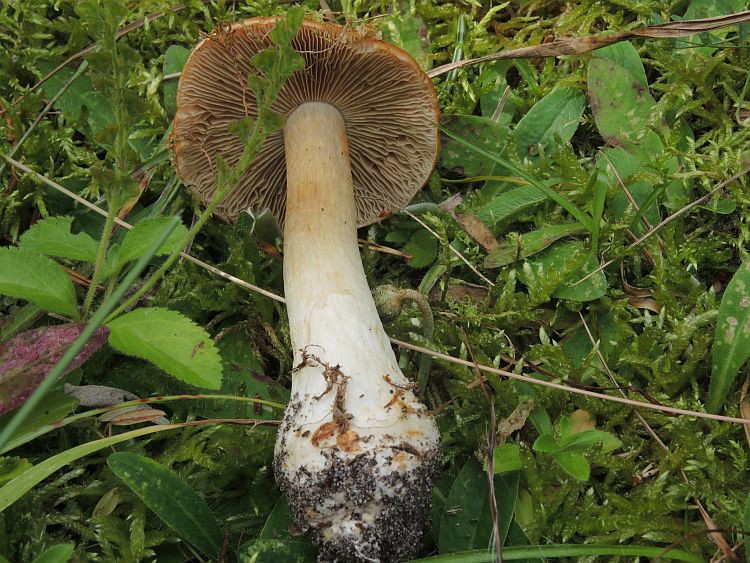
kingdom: Fungi
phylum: Basidiomycota
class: Agaricomycetes
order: Agaricales
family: Cortinariaceae
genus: Thaxterogaster
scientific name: Thaxterogaster multiformis
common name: honning-slørhat
